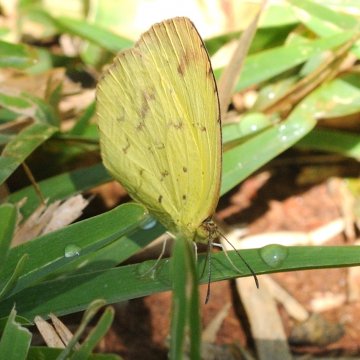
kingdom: Animalia
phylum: Arthropoda
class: Insecta
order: Lepidoptera
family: Pieridae
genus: Eurema
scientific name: Eurema desjardinsii
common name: Angled Grass Yellow
